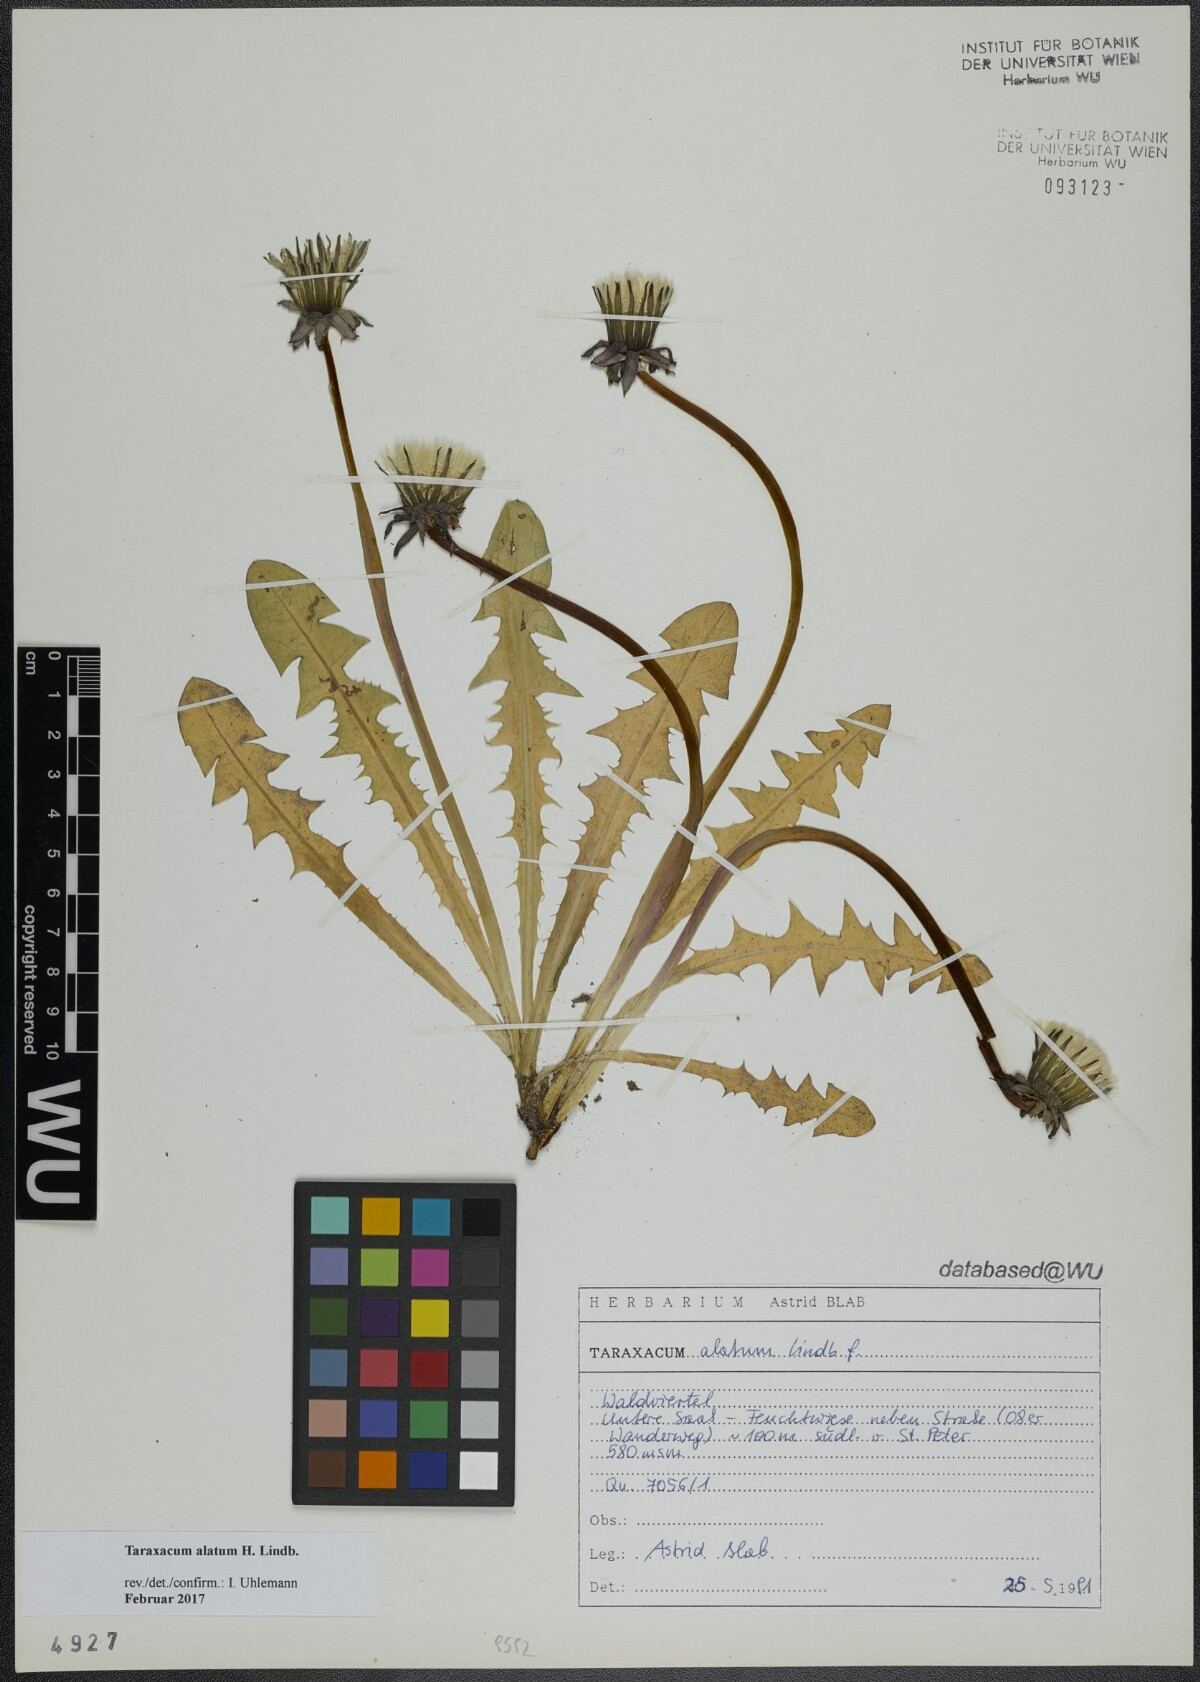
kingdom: Plantae
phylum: Tracheophyta
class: Magnoliopsida
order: Asterales
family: Asteraceae
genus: Taraxacum
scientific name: Taraxacum alatum
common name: Green dandelion
